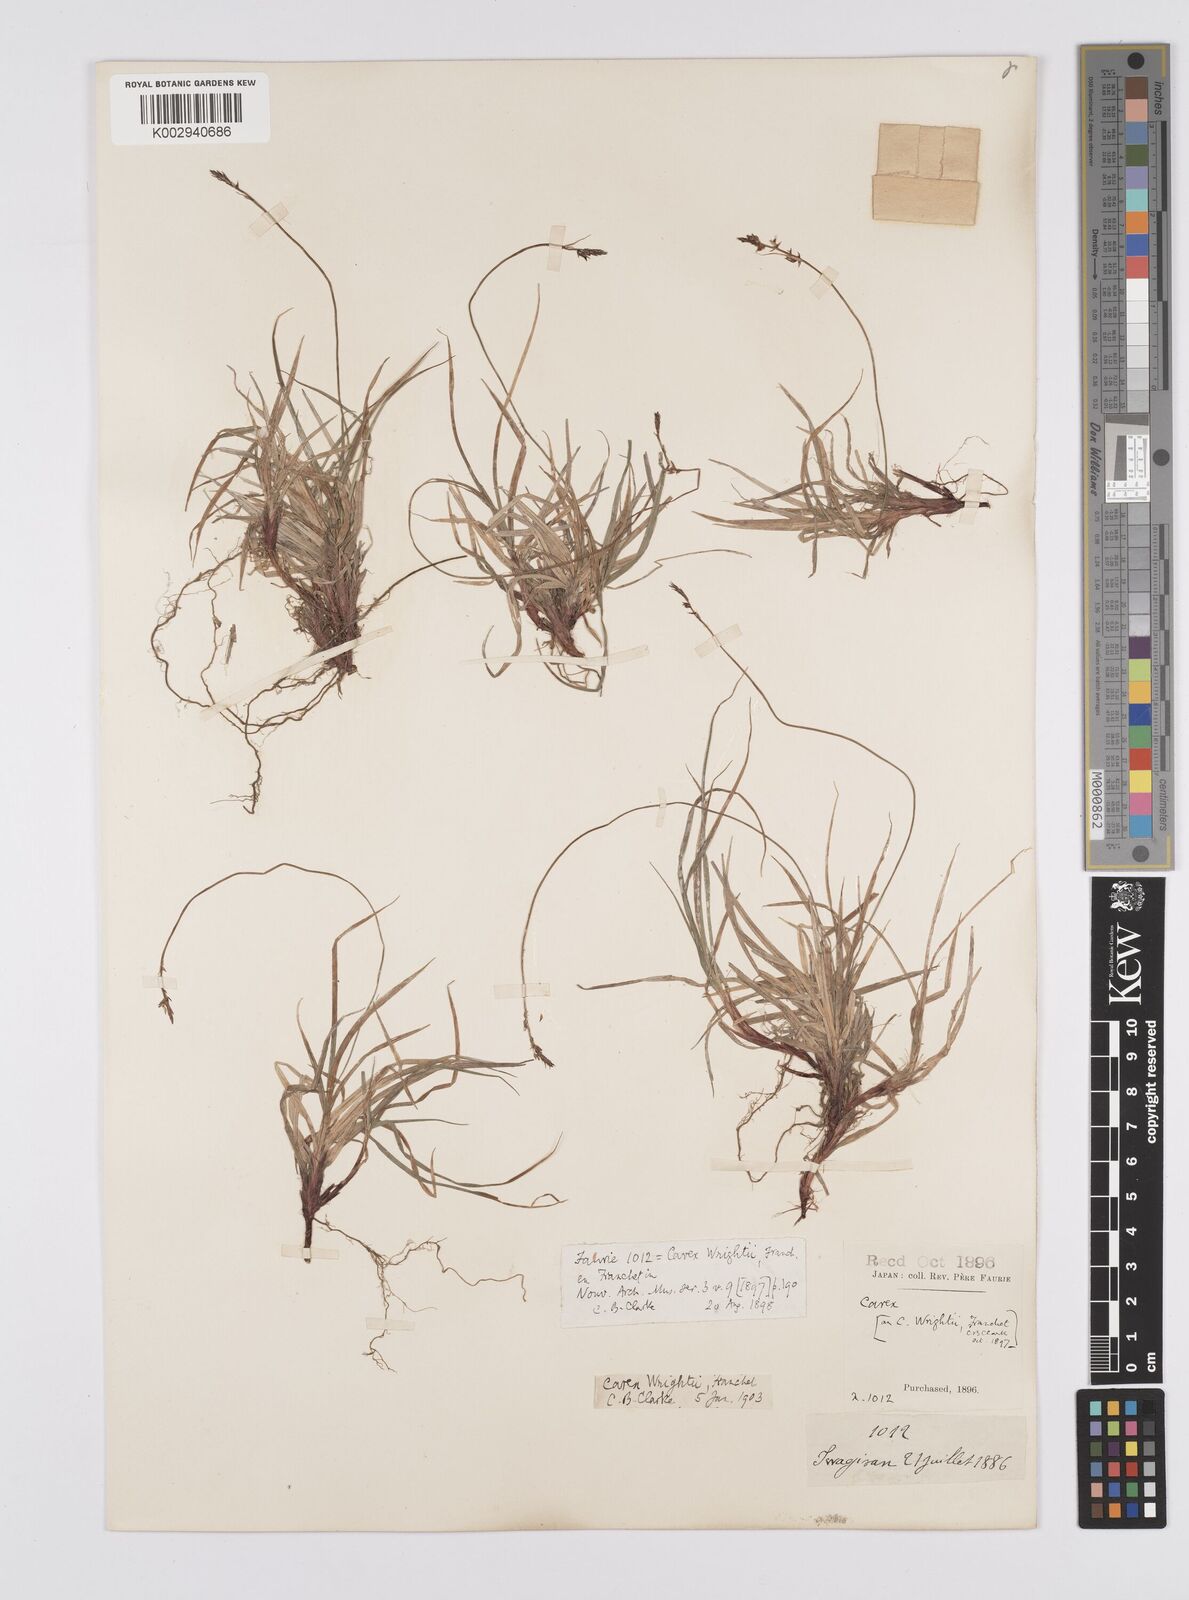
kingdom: Plantae
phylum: Tracheophyta
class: Liliopsida
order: Poales
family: Cyperaceae
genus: Carex
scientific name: Carex oxyandra
